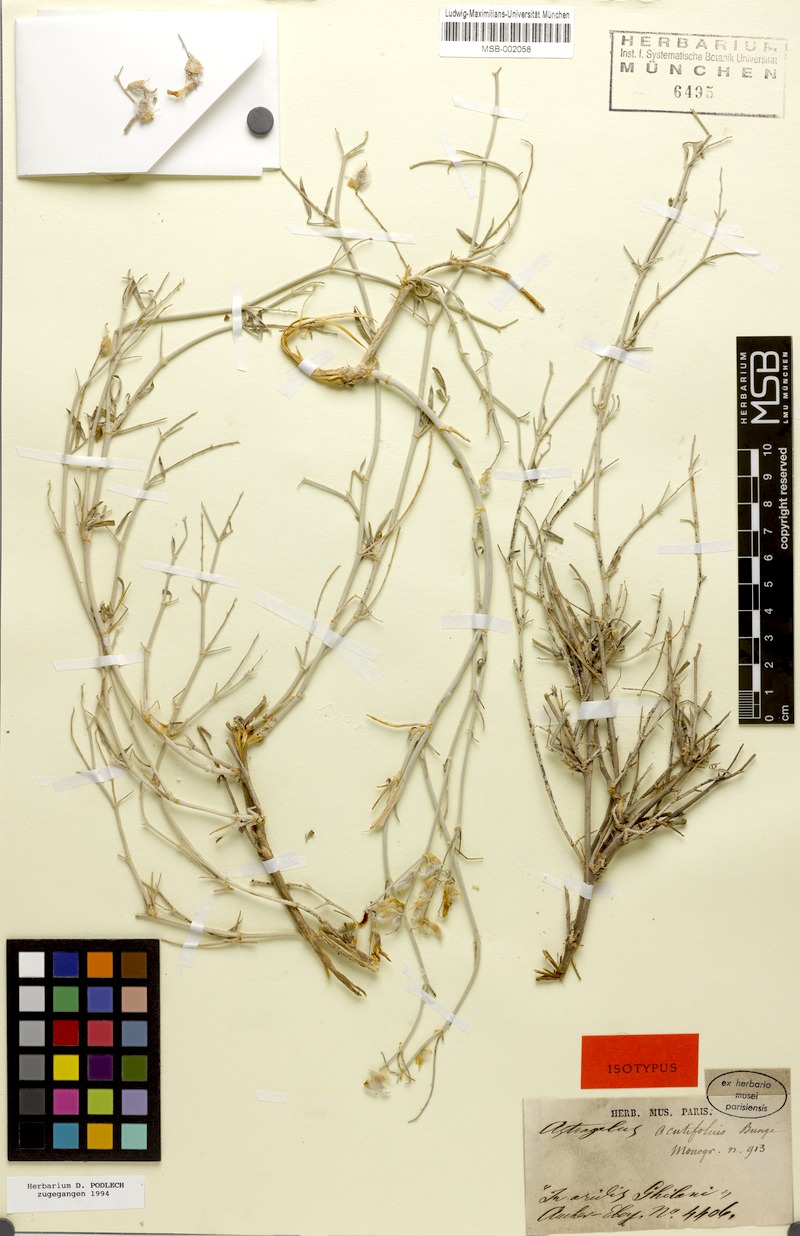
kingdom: Plantae
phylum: Tracheophyta
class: Magnoliopsida
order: Fabales
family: Fabaceae
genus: Astragalus
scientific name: Astragalus acutifolius
